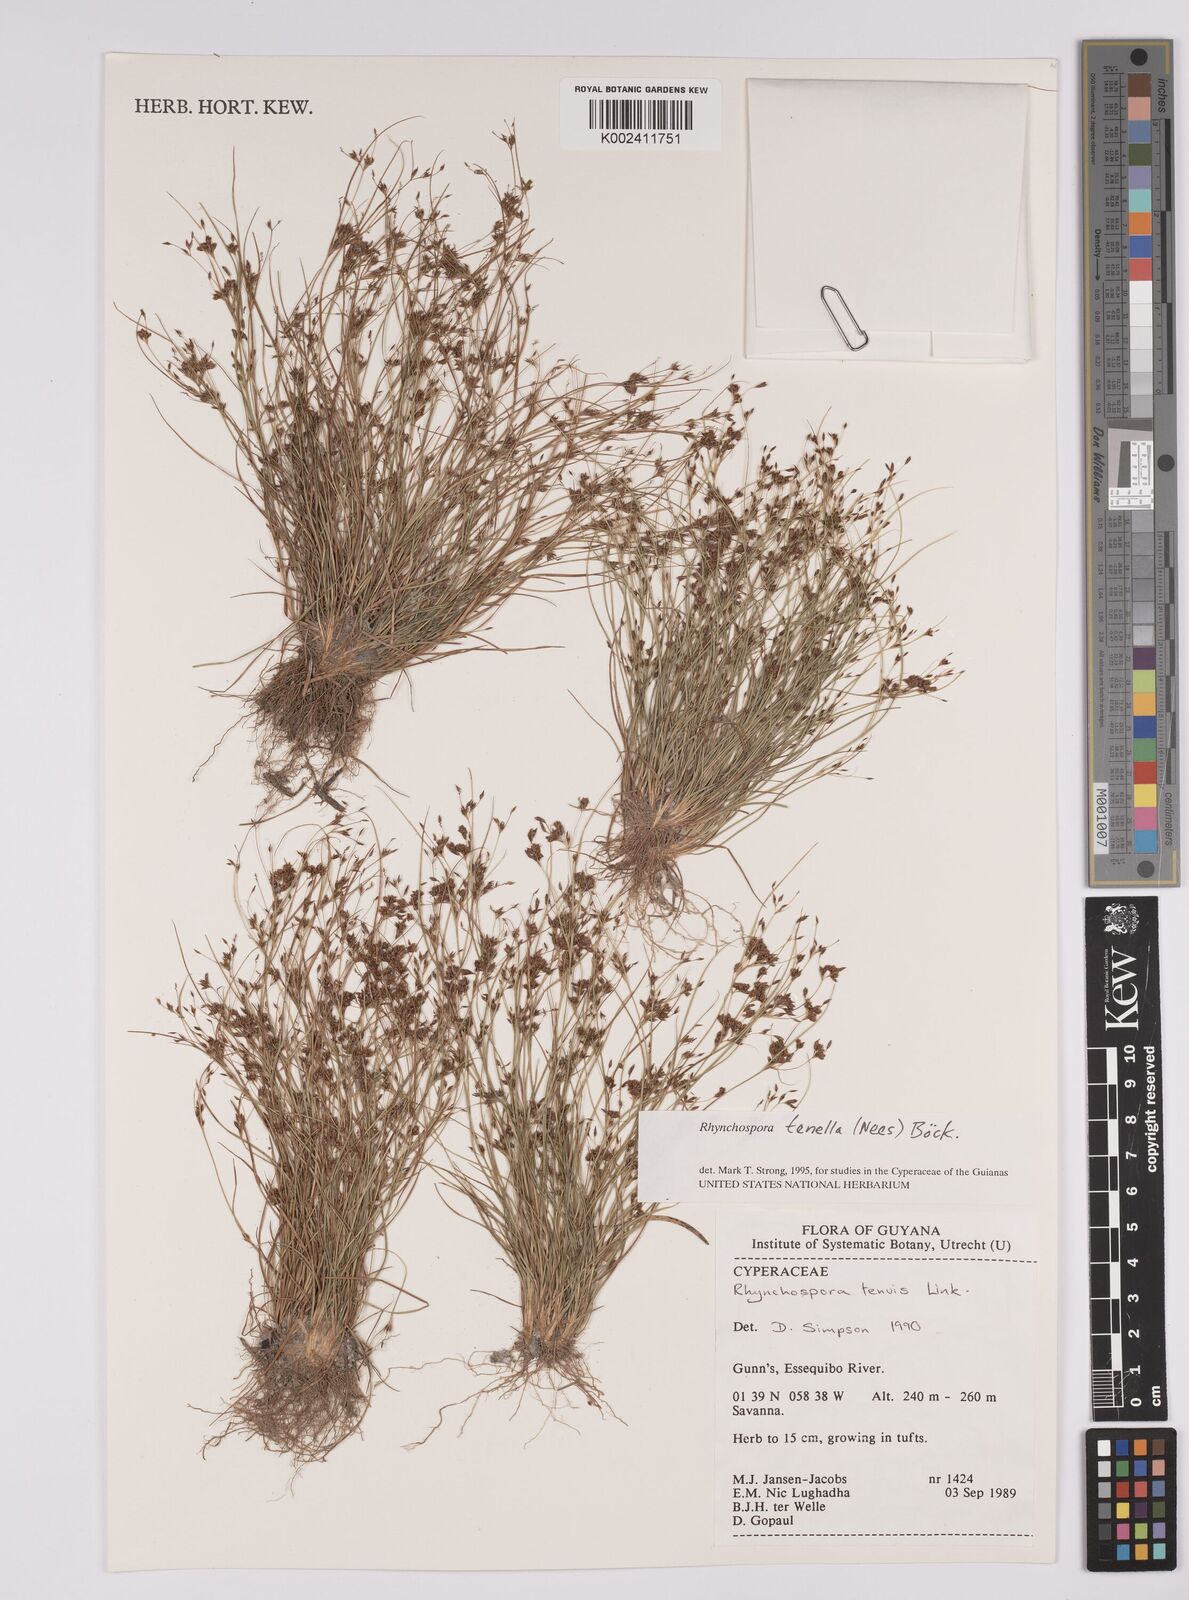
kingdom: Plantae
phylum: Tracheophyta
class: Liliopsida
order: Poales
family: Cyperaceae
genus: Rhynchospora
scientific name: Rhynchospora tenella
